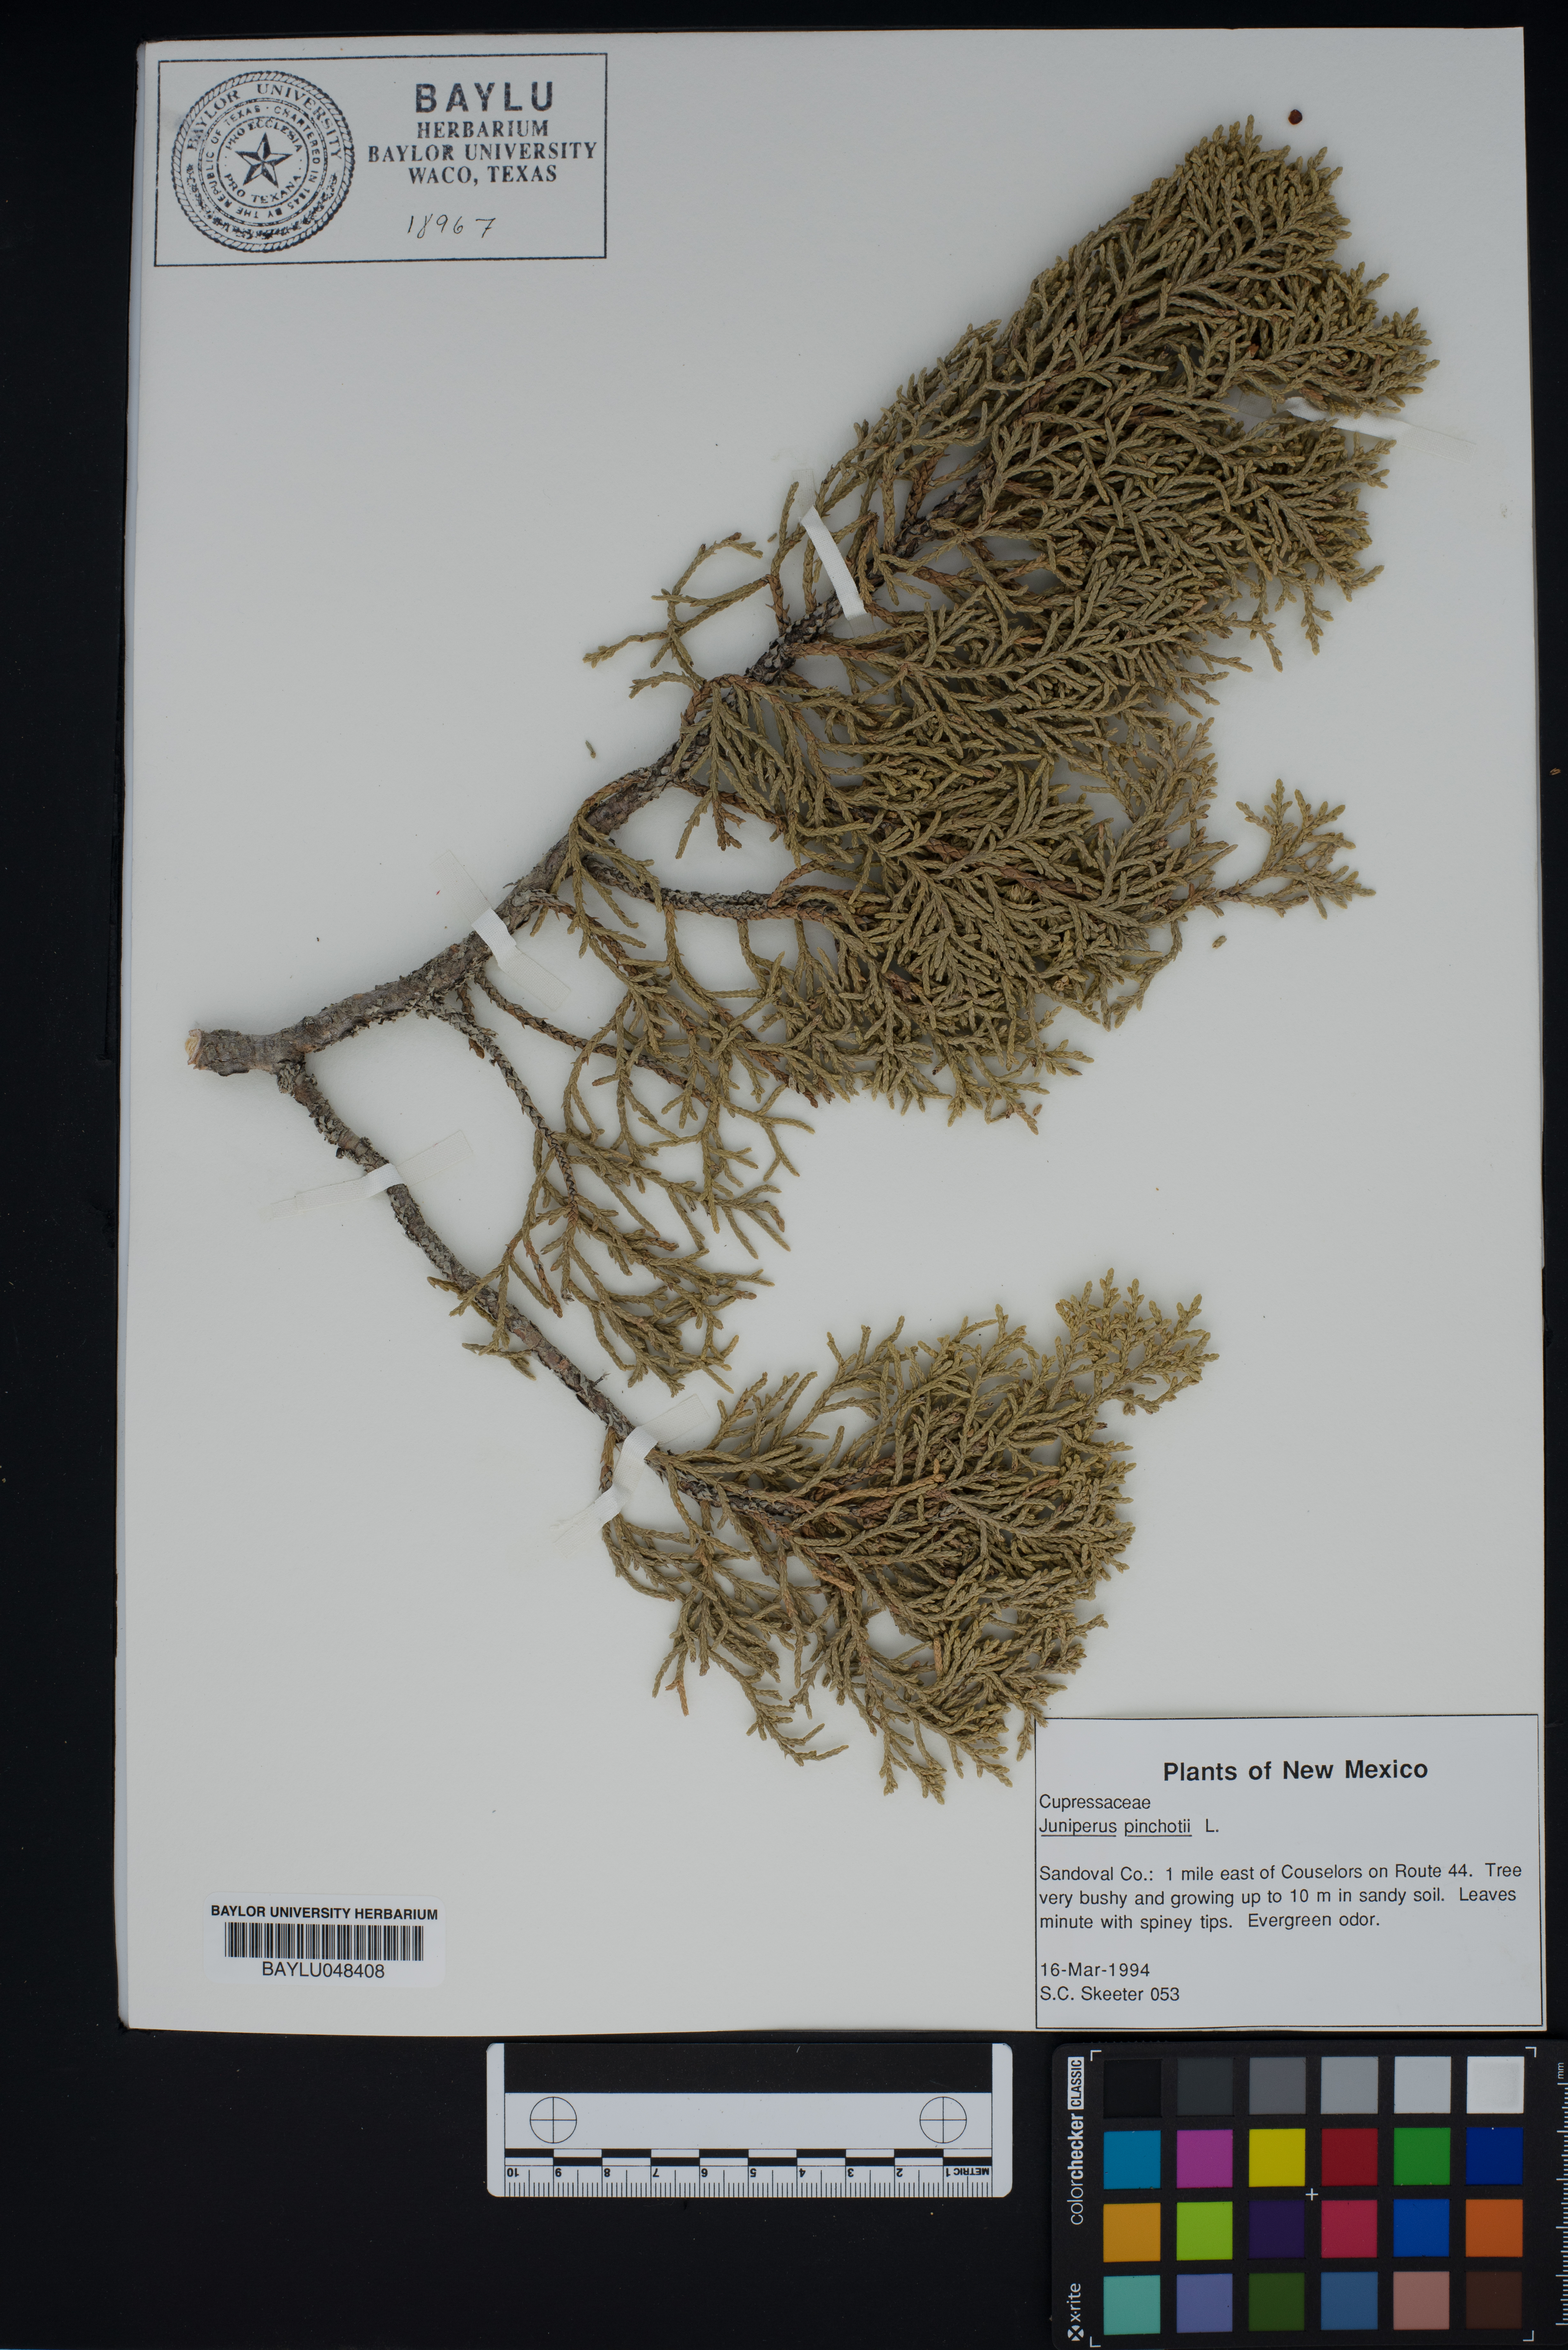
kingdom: Plantae
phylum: Tracheophyta
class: Pinopsida
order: Pinales
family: Cupressaceae
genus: Juniperus
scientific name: Juniperus pinchotii
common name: Pinchot juniper
